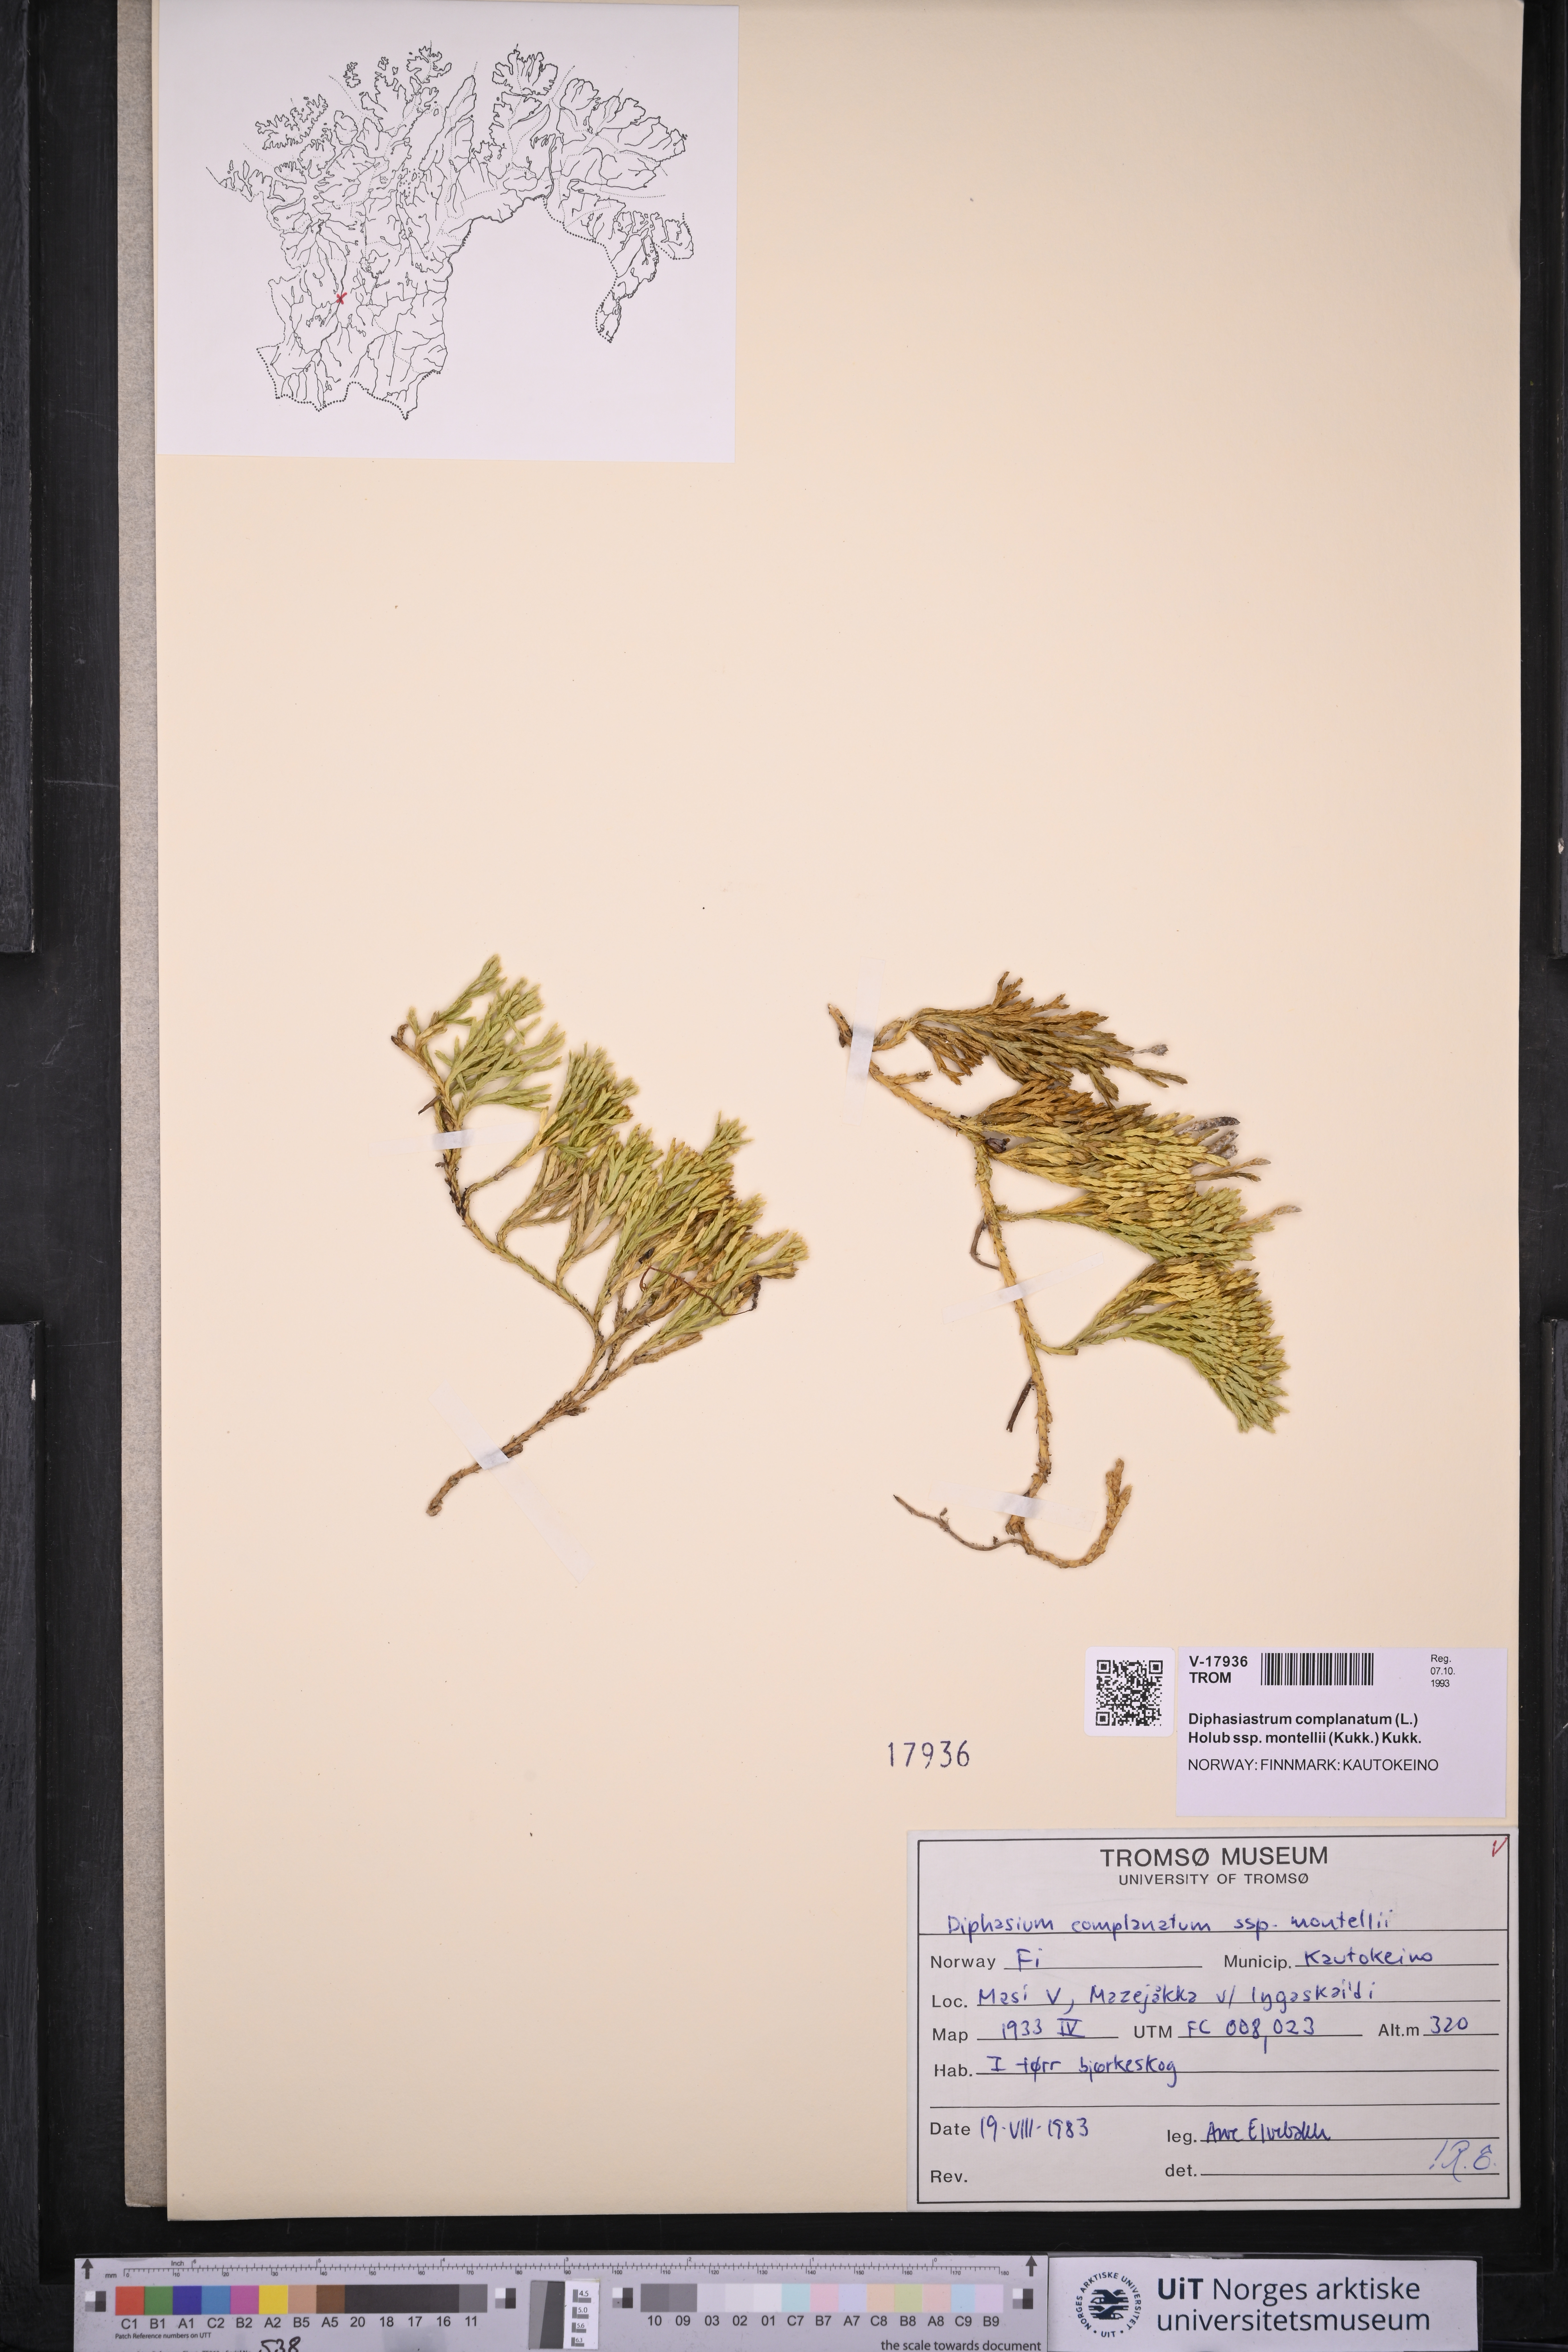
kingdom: Plantae
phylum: Tracheophyta
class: Lycopodiopsida
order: Lycopodiales
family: Lycopodiaceae
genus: Diphasiastrum
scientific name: Diphasiastrum complanatum
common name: Northern running-pine
